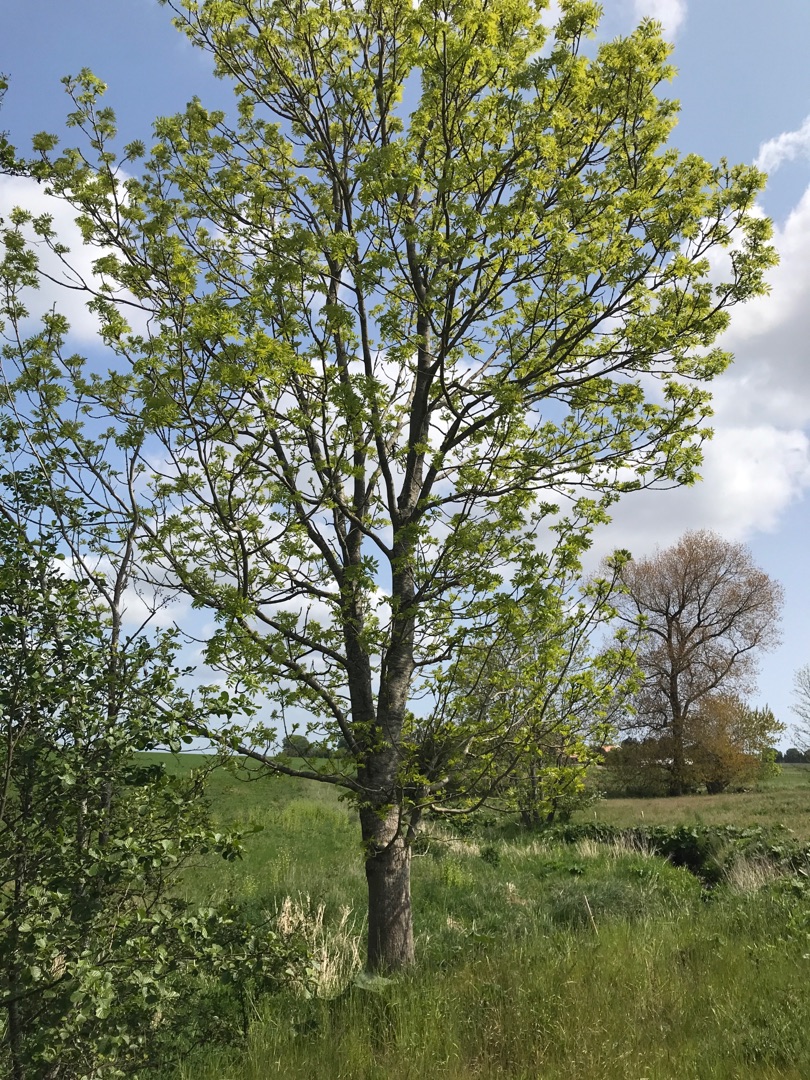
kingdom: Plantae
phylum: Tracheophyta
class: Magnoliopsida
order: Lamiales
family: Oleaceae
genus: Fraxinus
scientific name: Fraxinus excelsior
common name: Ask
